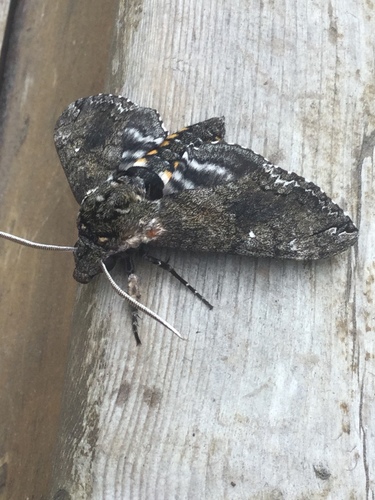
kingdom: Animalia
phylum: Arthropoda
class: Insecta
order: Lepidoptera
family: Sphingidae
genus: Manduca
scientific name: Manduca sexta
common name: Carolina sphinx
